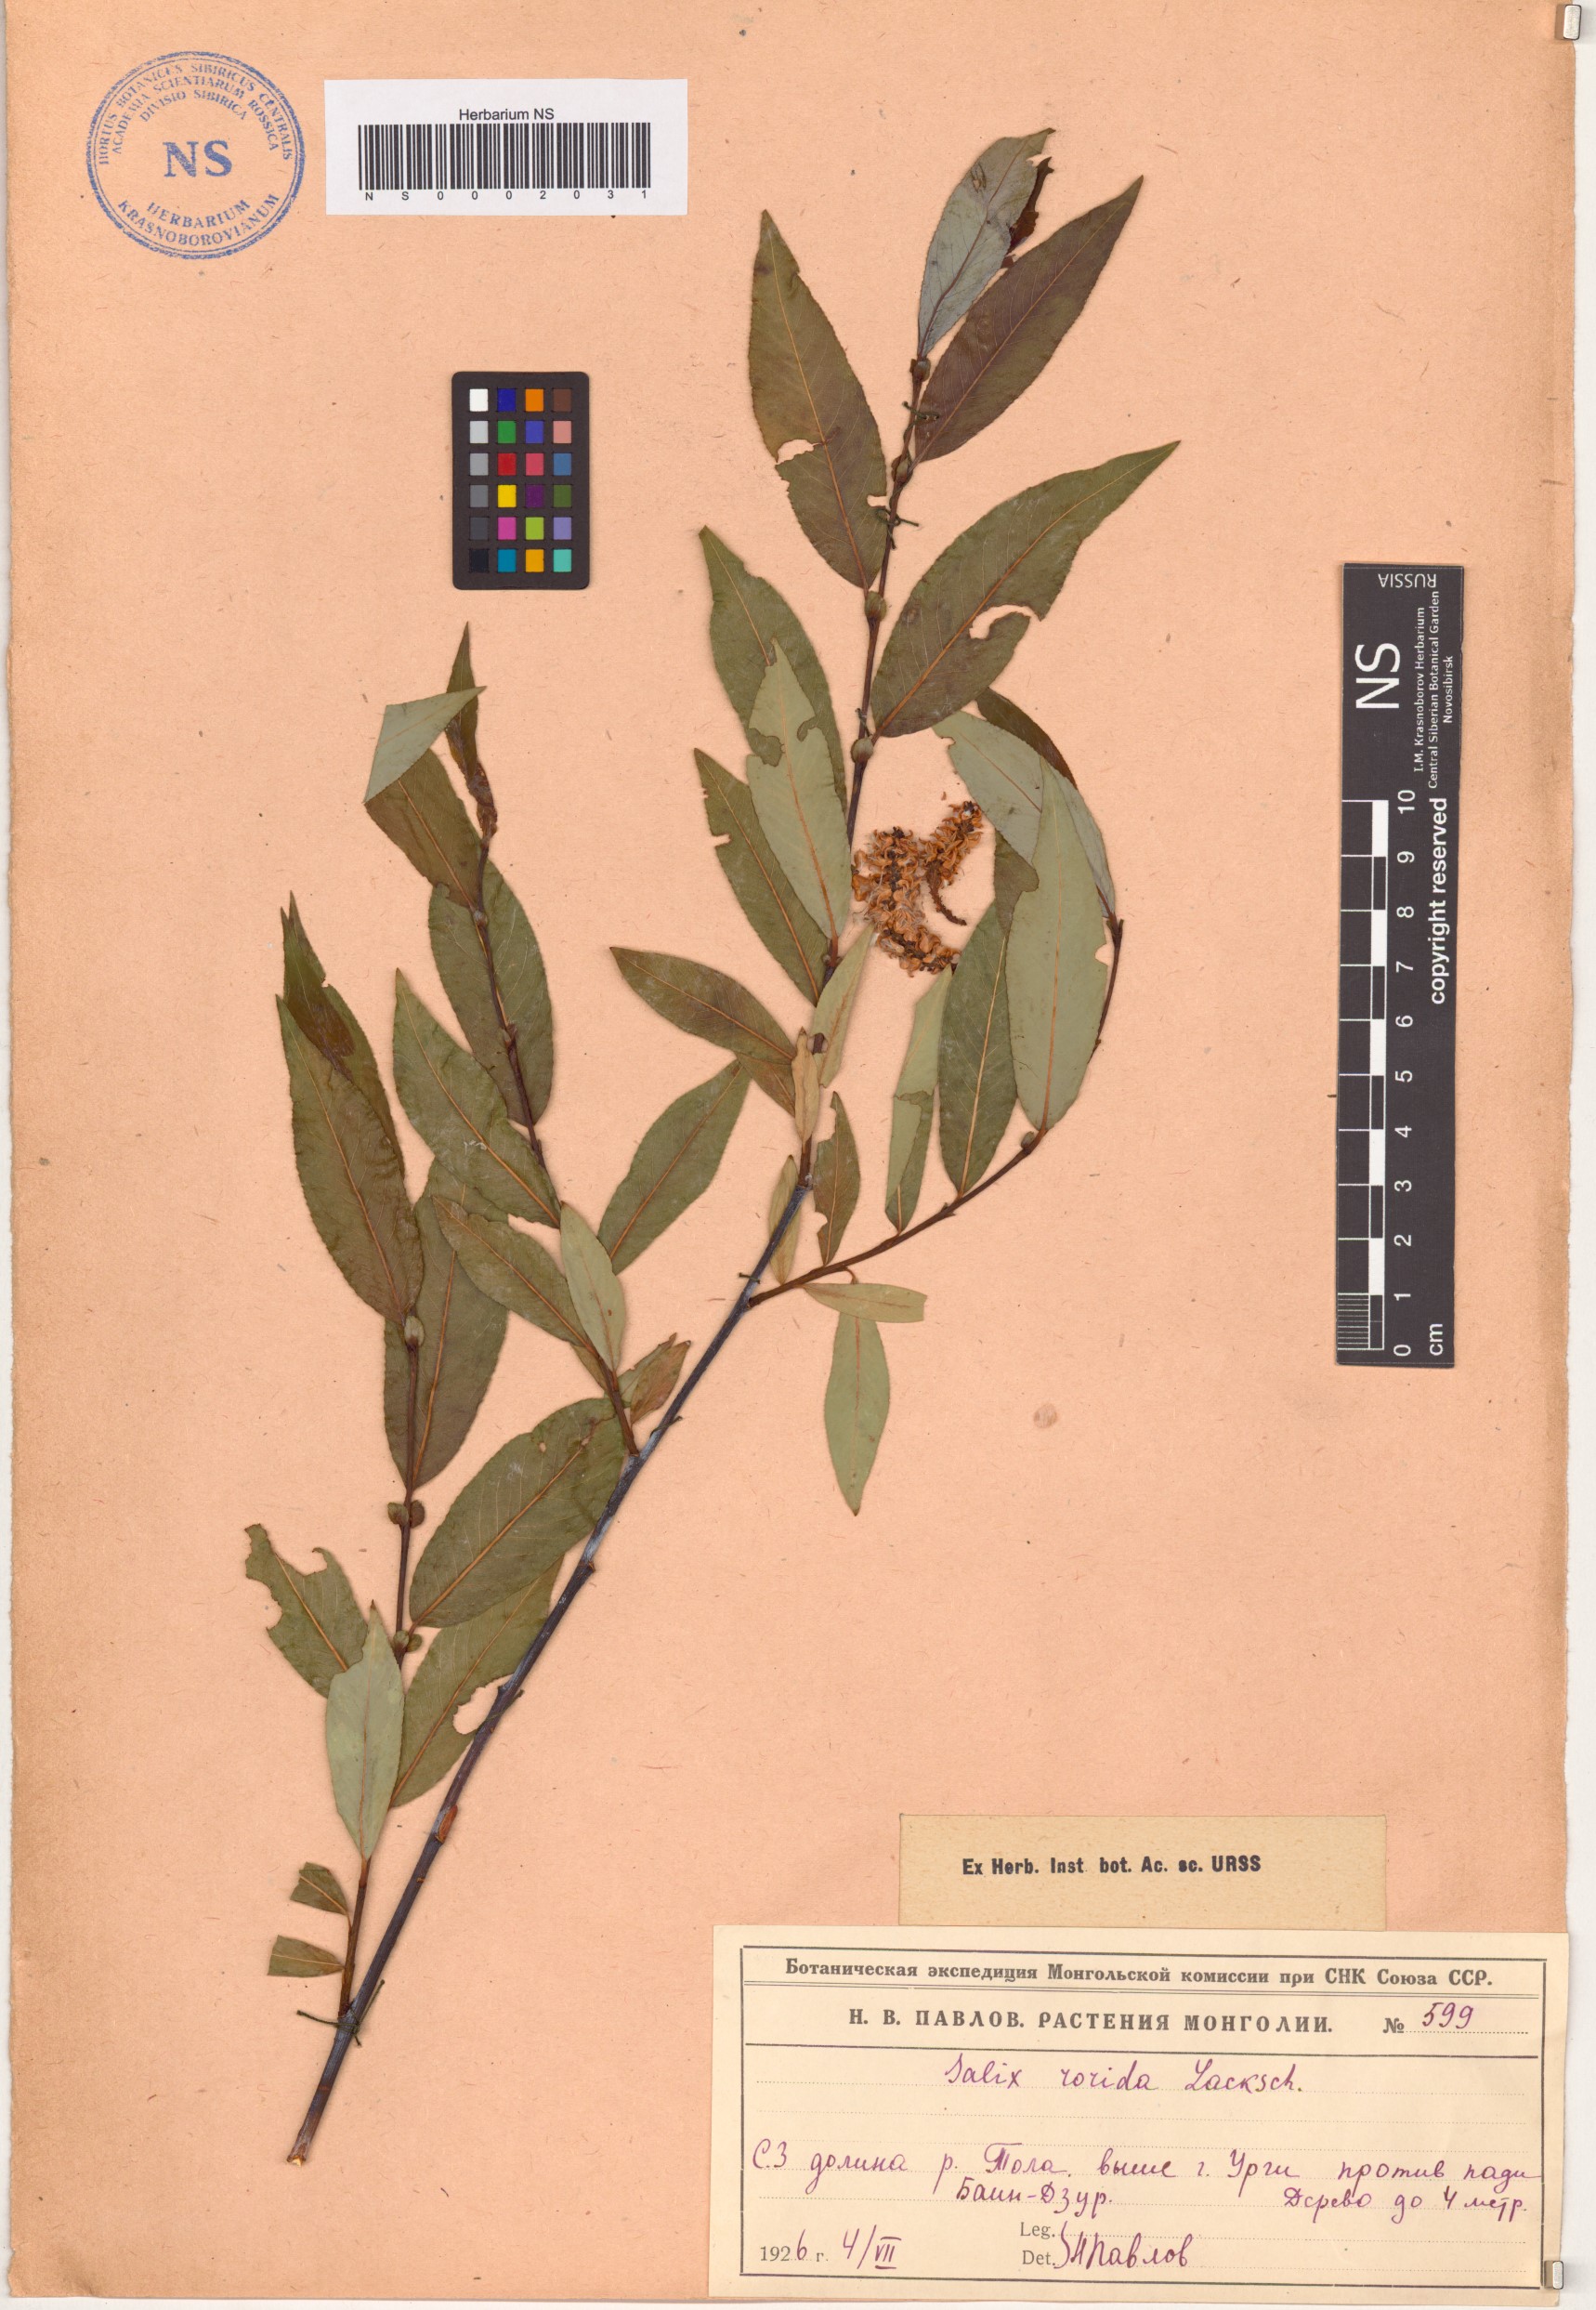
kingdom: Plantae
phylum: Tracheophyta
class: Magnoliopsida
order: Malpighiales
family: Salicaceae
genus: Salix
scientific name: Salix rorida
